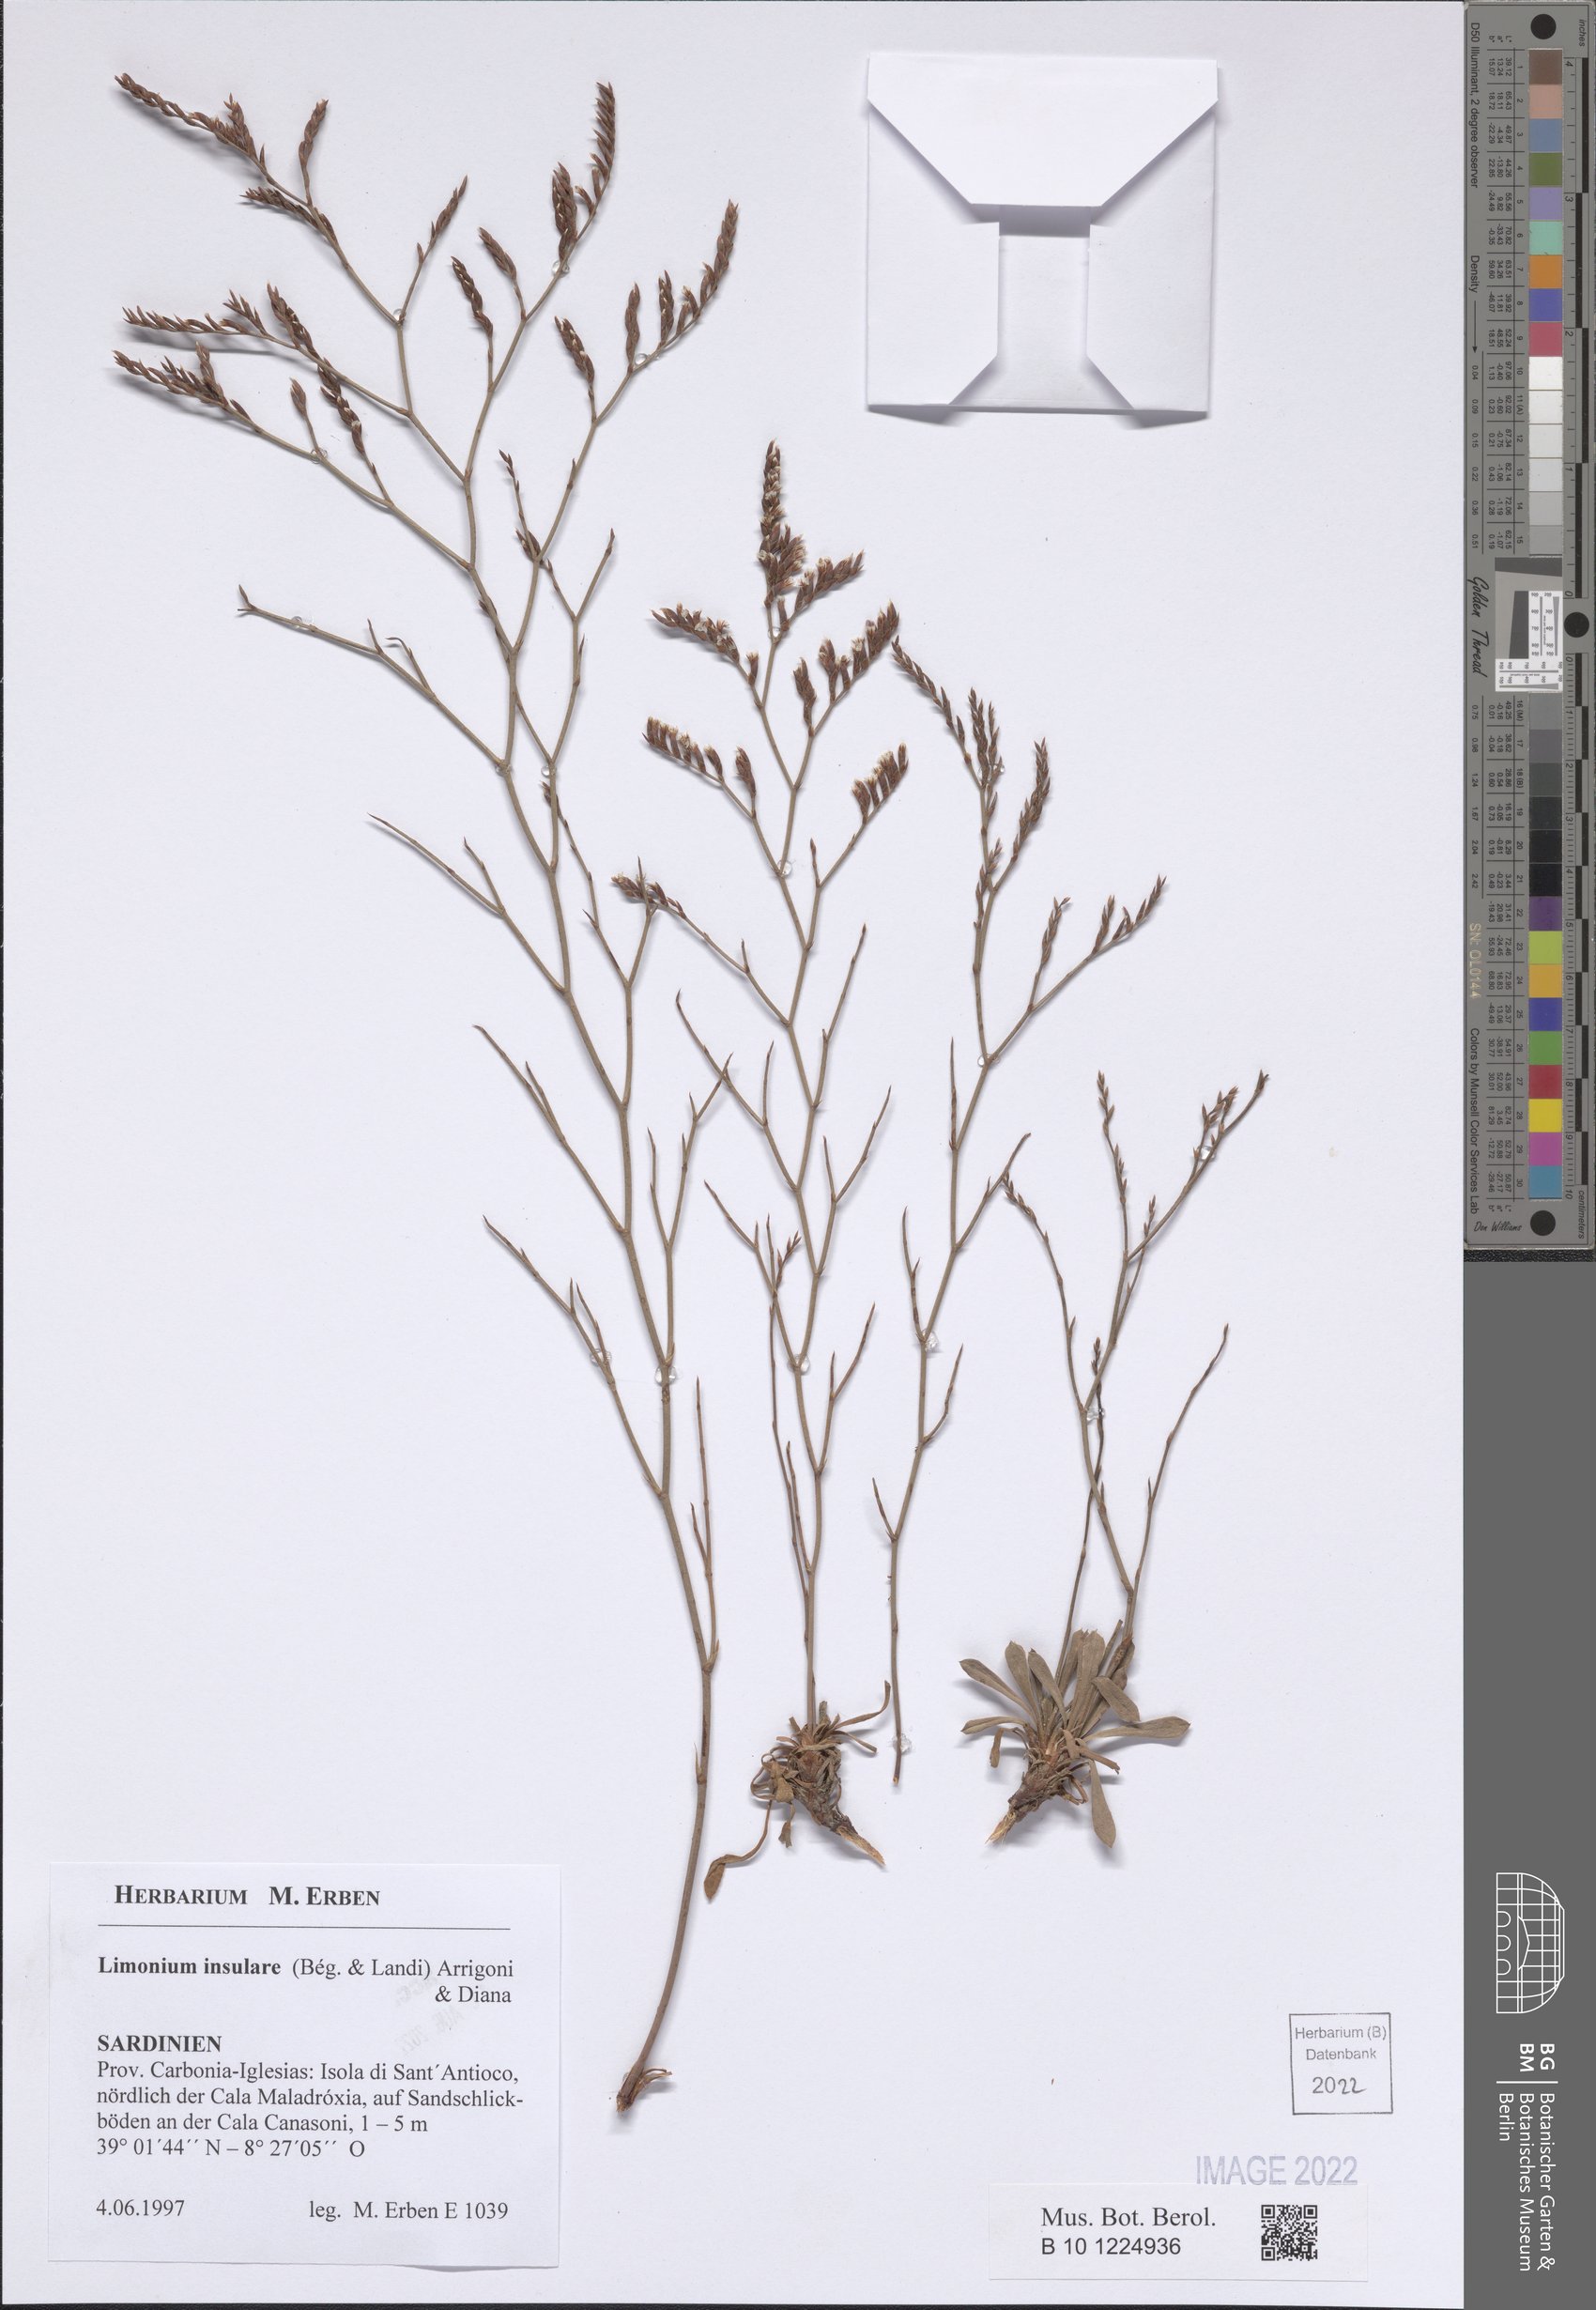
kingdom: Plantae
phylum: Tracheophyta
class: Magnoliopsida
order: Caryophyllales
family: Plumbaginaceae
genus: Limonium
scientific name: Limonium insulare
